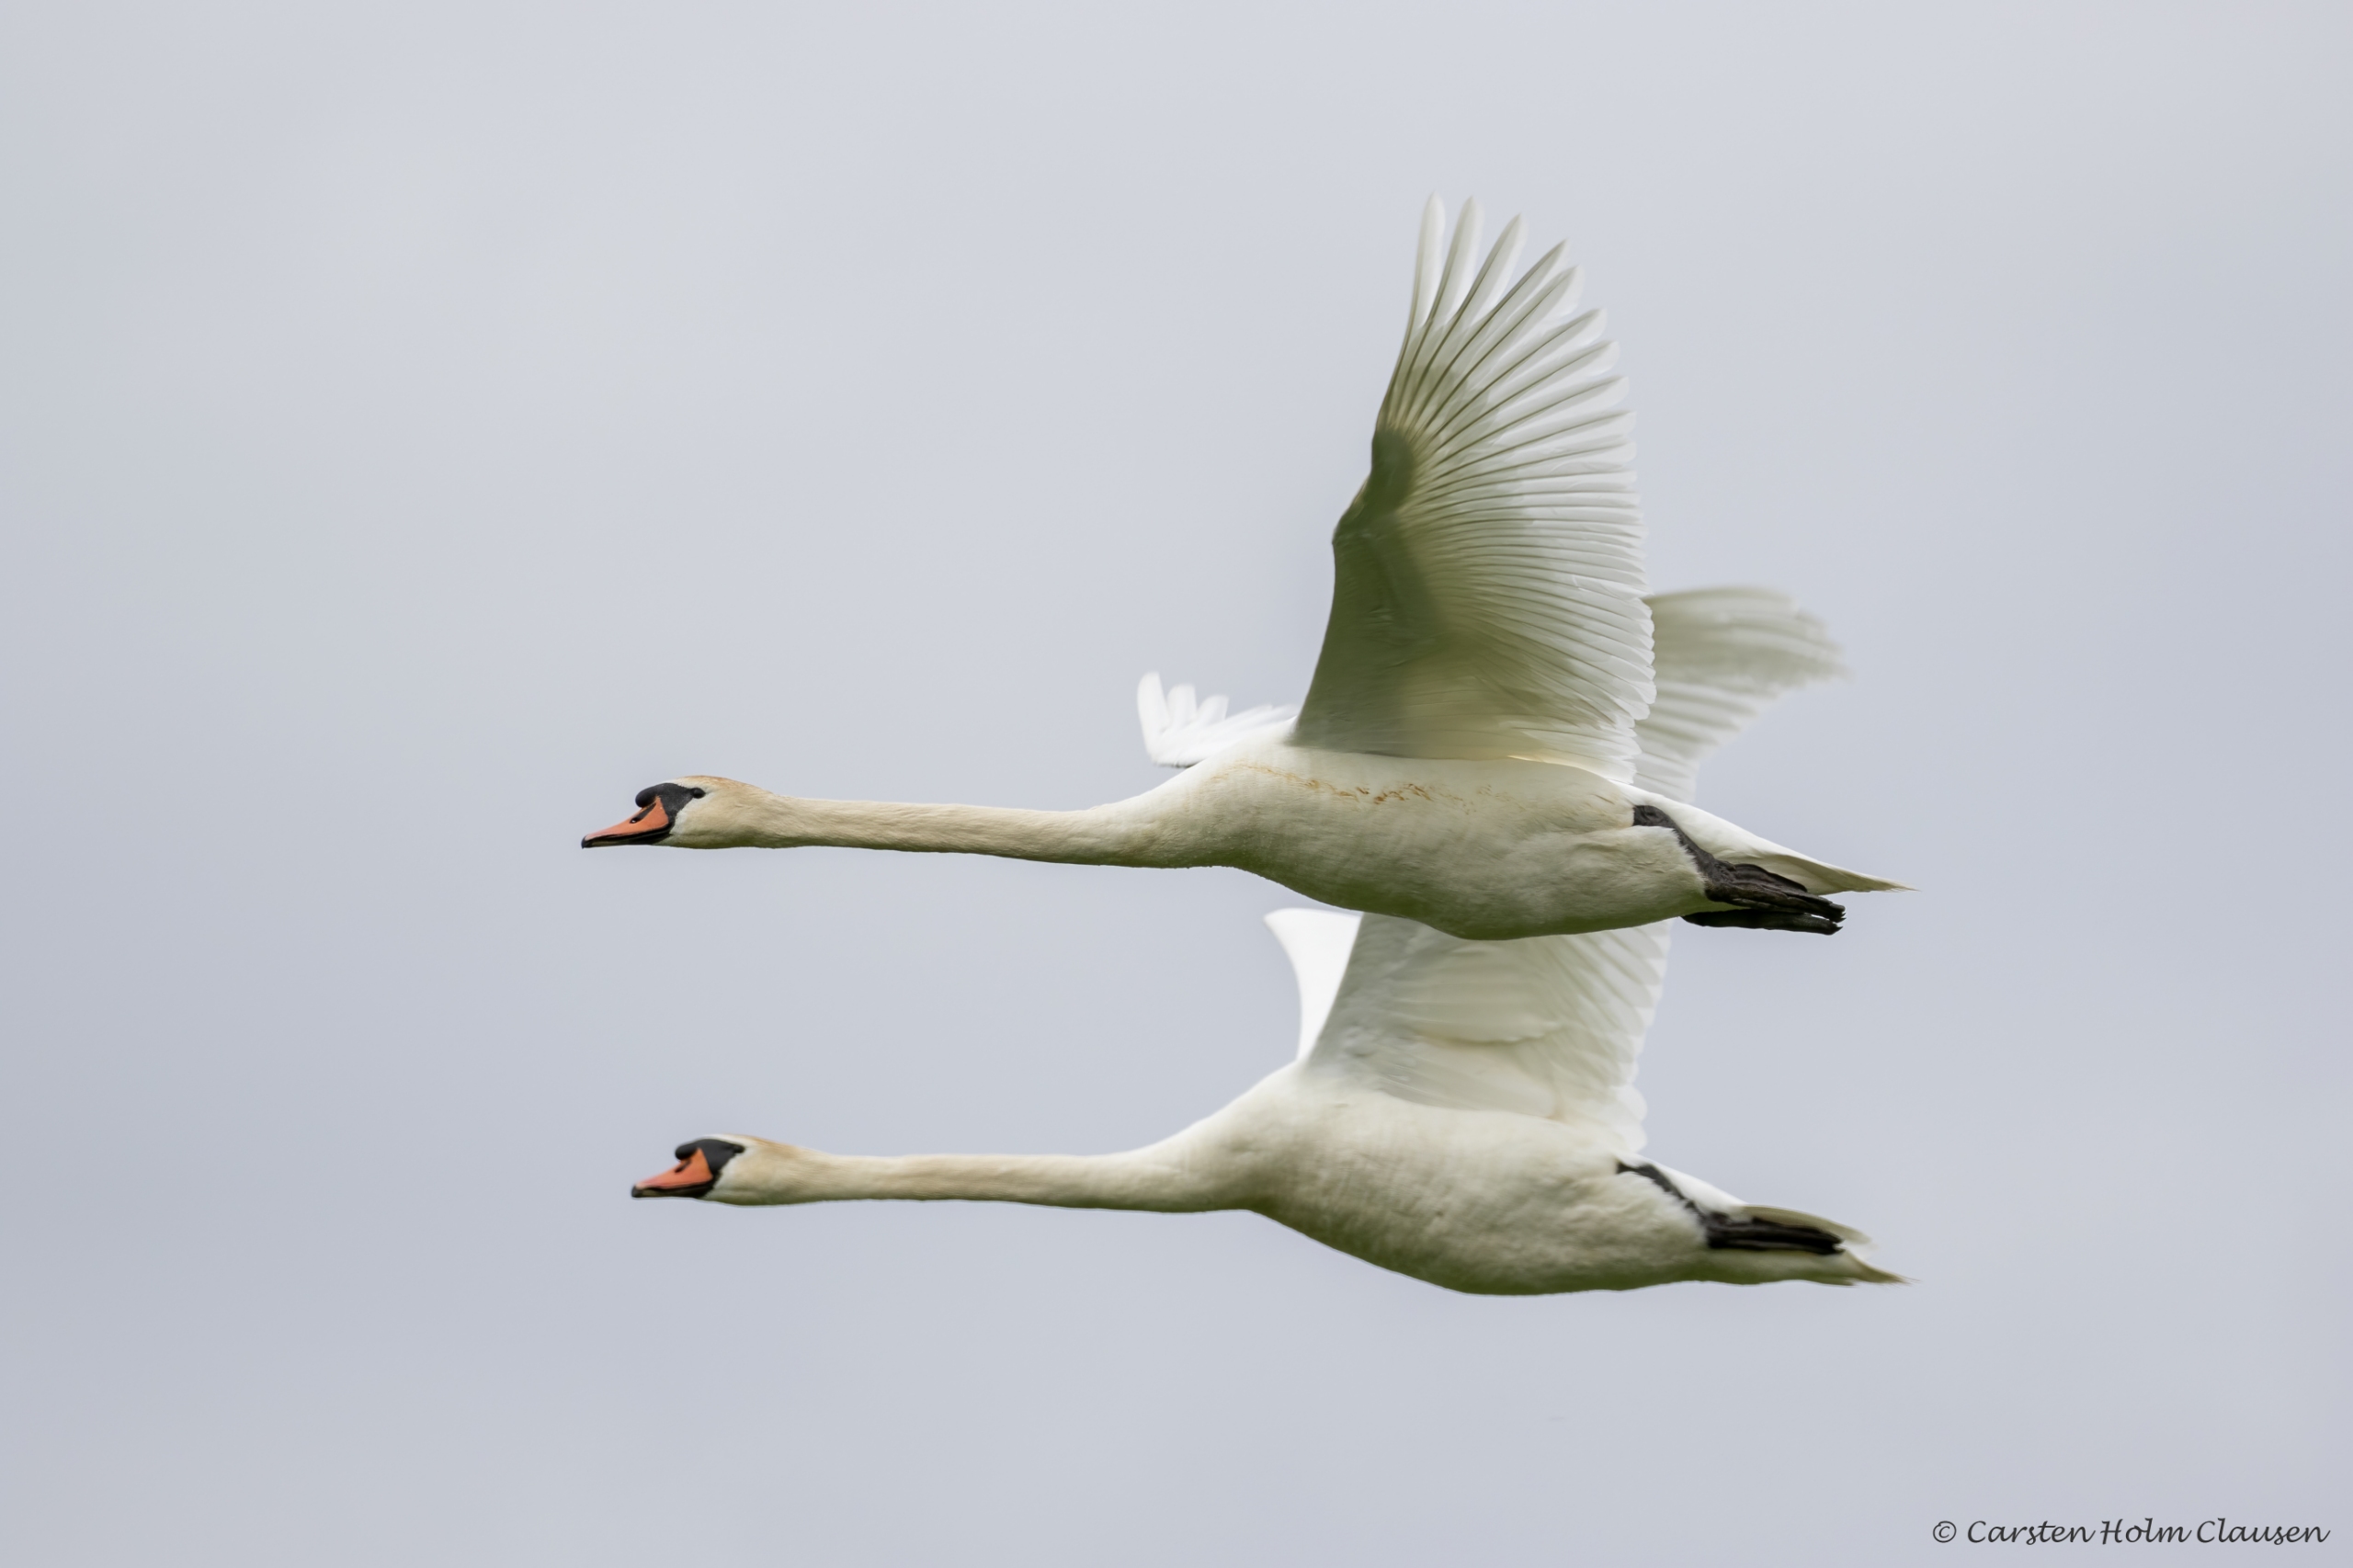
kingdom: Animalia
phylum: Chordata
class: Aves
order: Anseriformes
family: Anatidae
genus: Cygnus
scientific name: Cygnus olor
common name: Knopsvane
